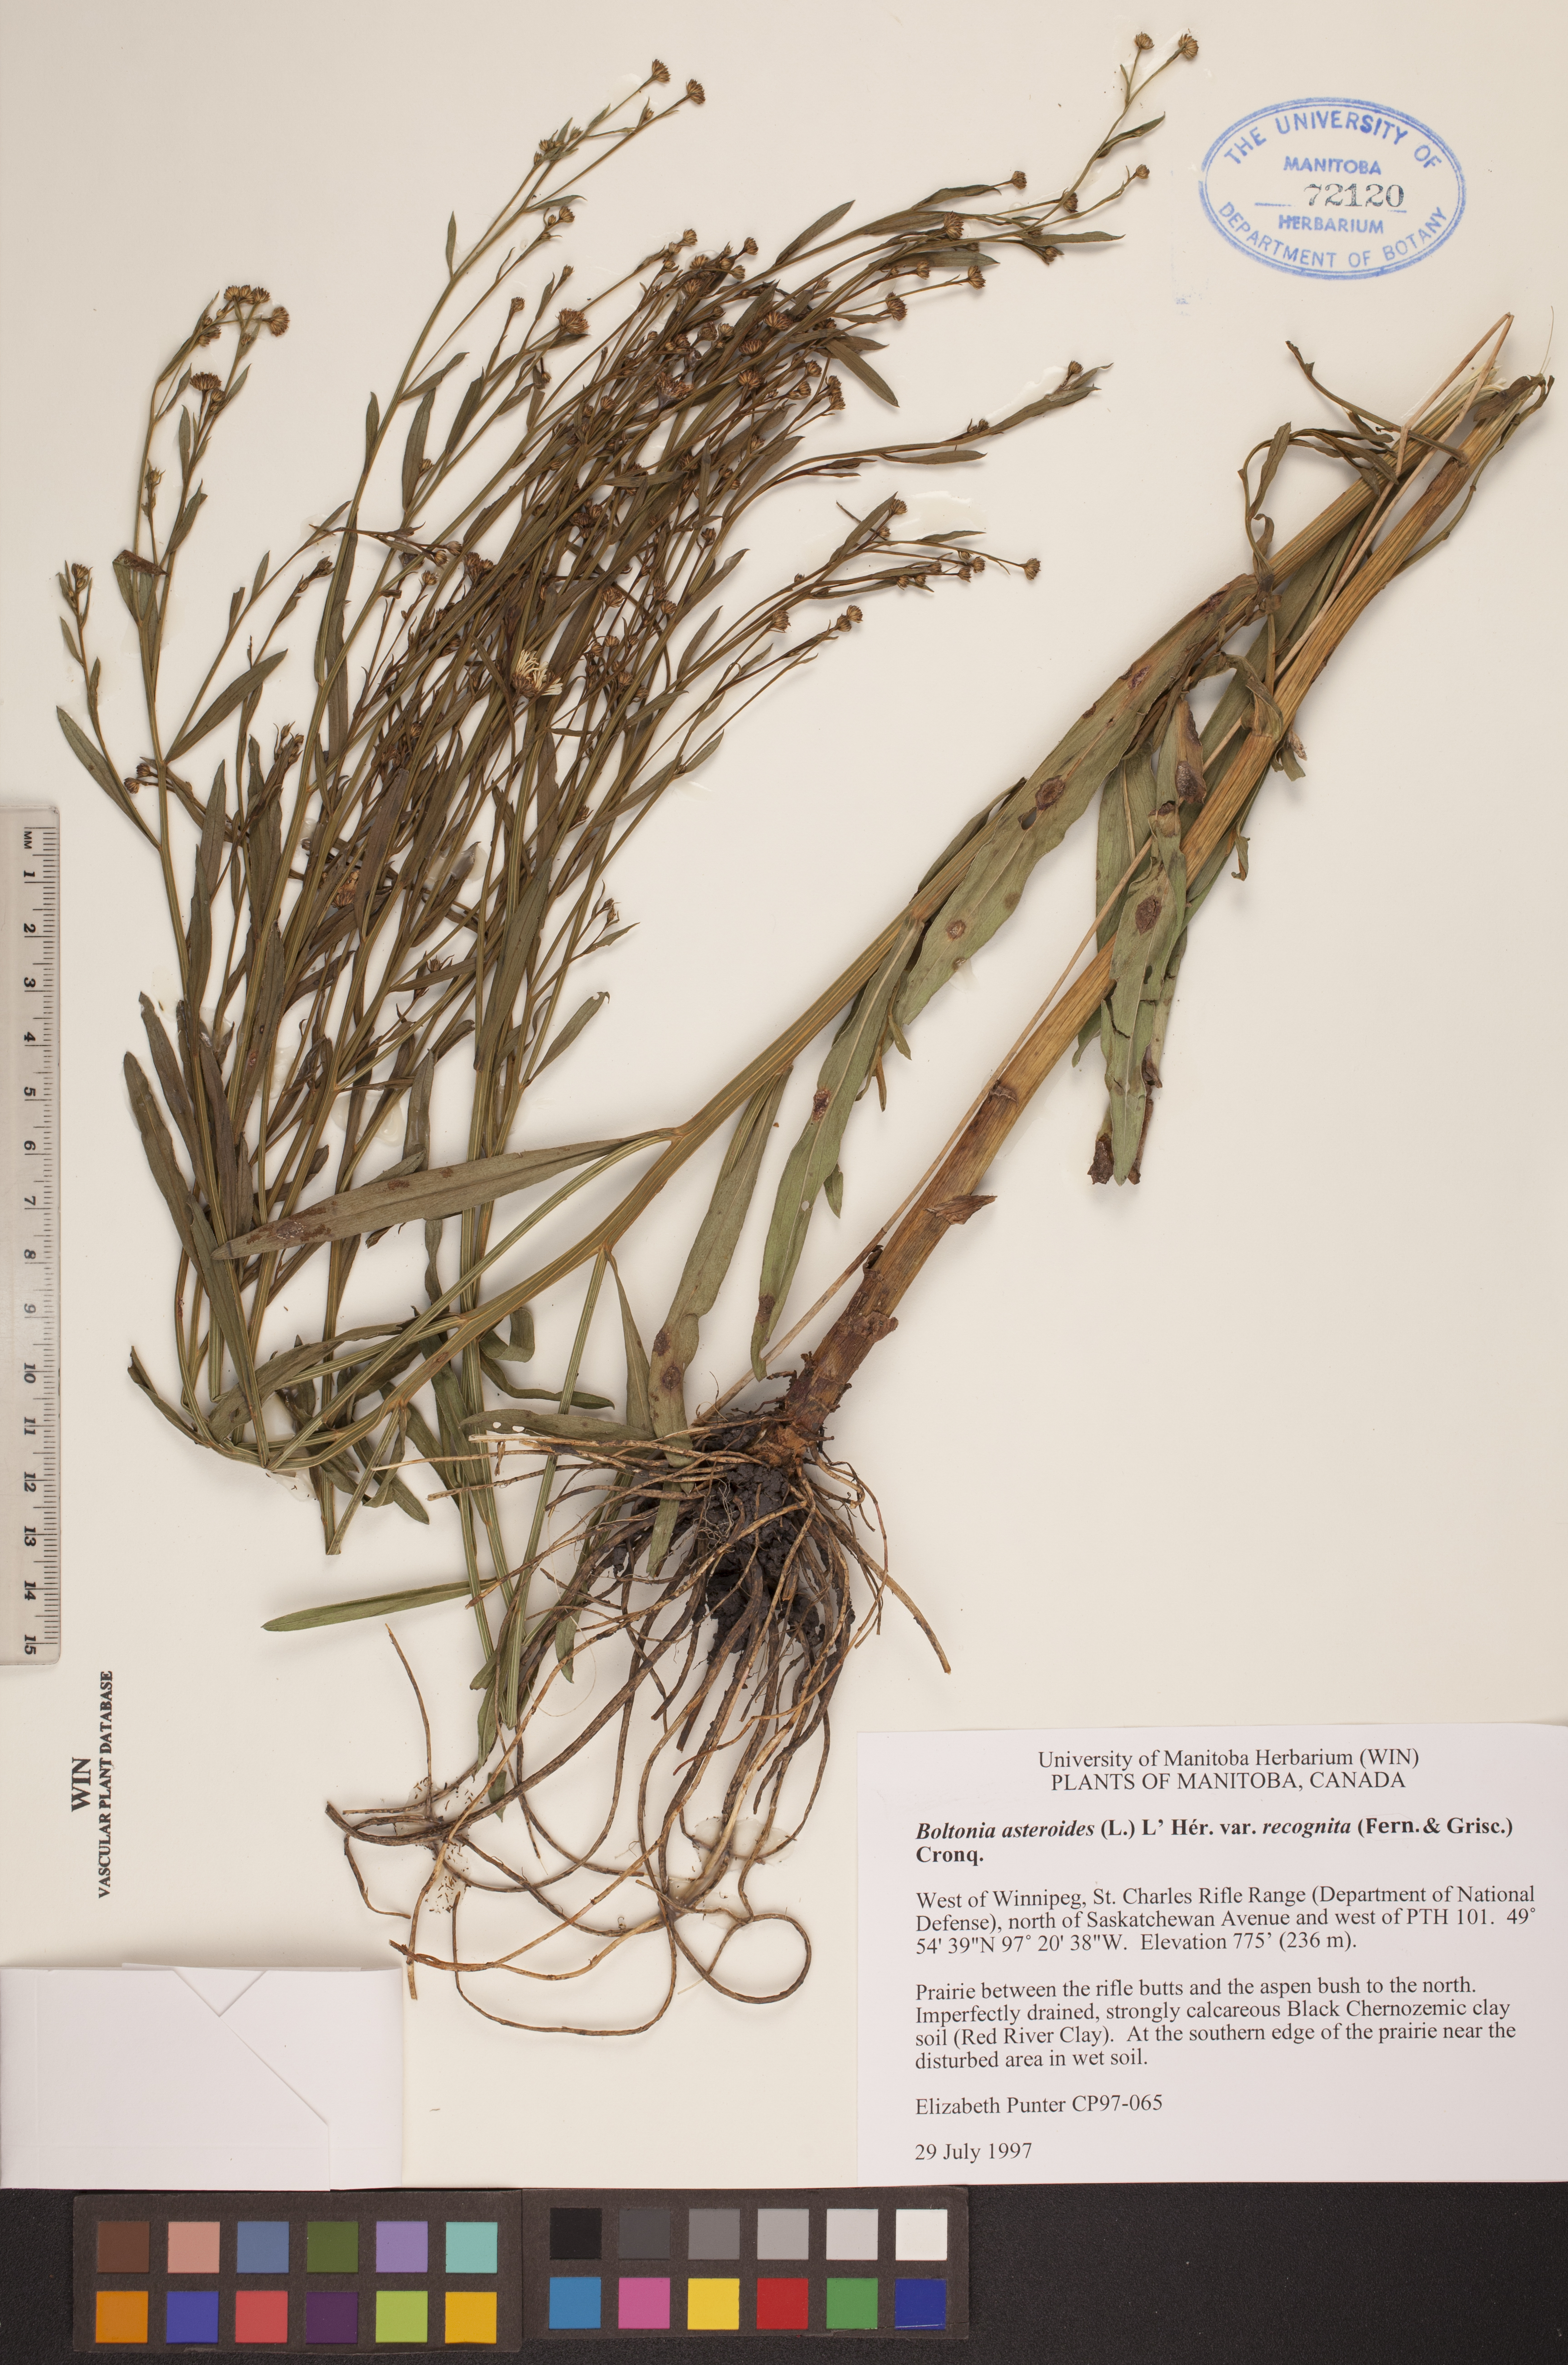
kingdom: Plantae
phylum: Tracheophyta
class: Magnoliopsida
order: Asterales
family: Asteraceae
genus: Boltonia
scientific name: Boltonia asteroides
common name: False chamomile
